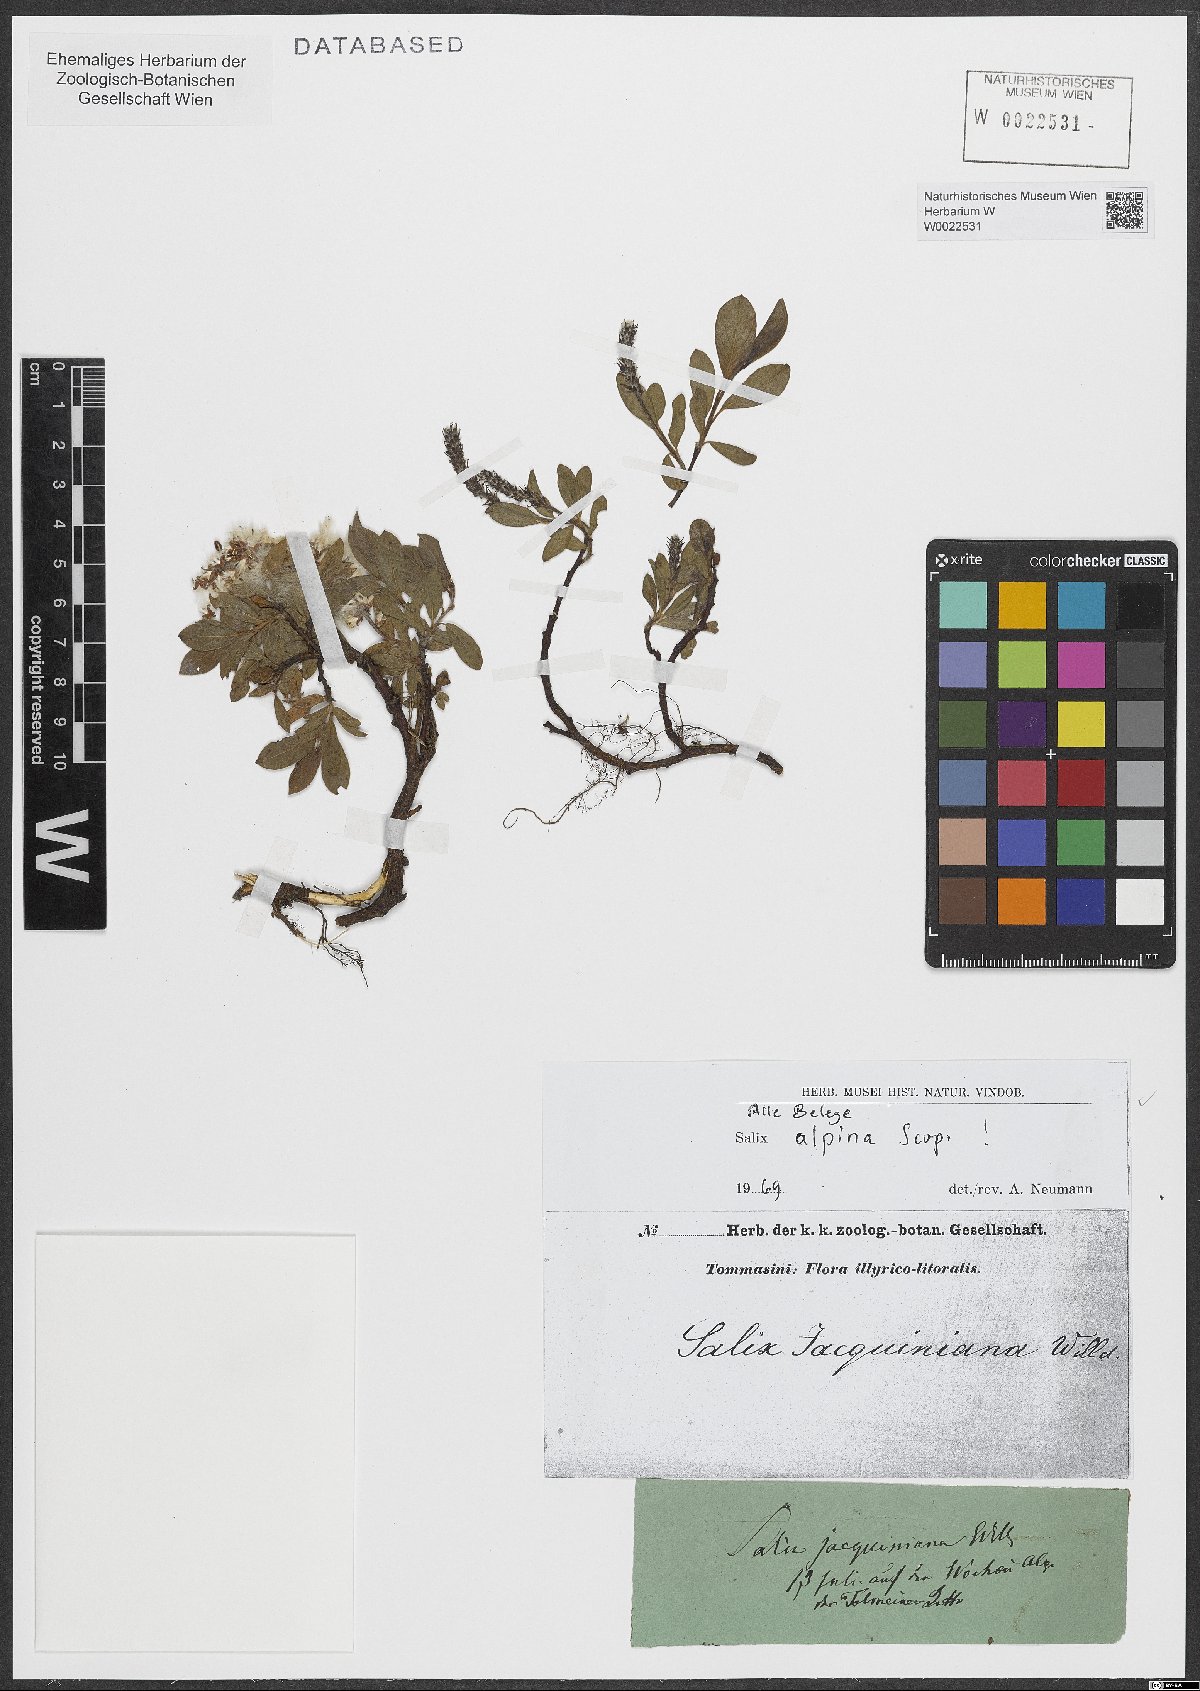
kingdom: Plantae
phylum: Tracheophyta
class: Magnoliopsida
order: Malpighiales
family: Salicaceae
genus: Salix
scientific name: Salix alpina
